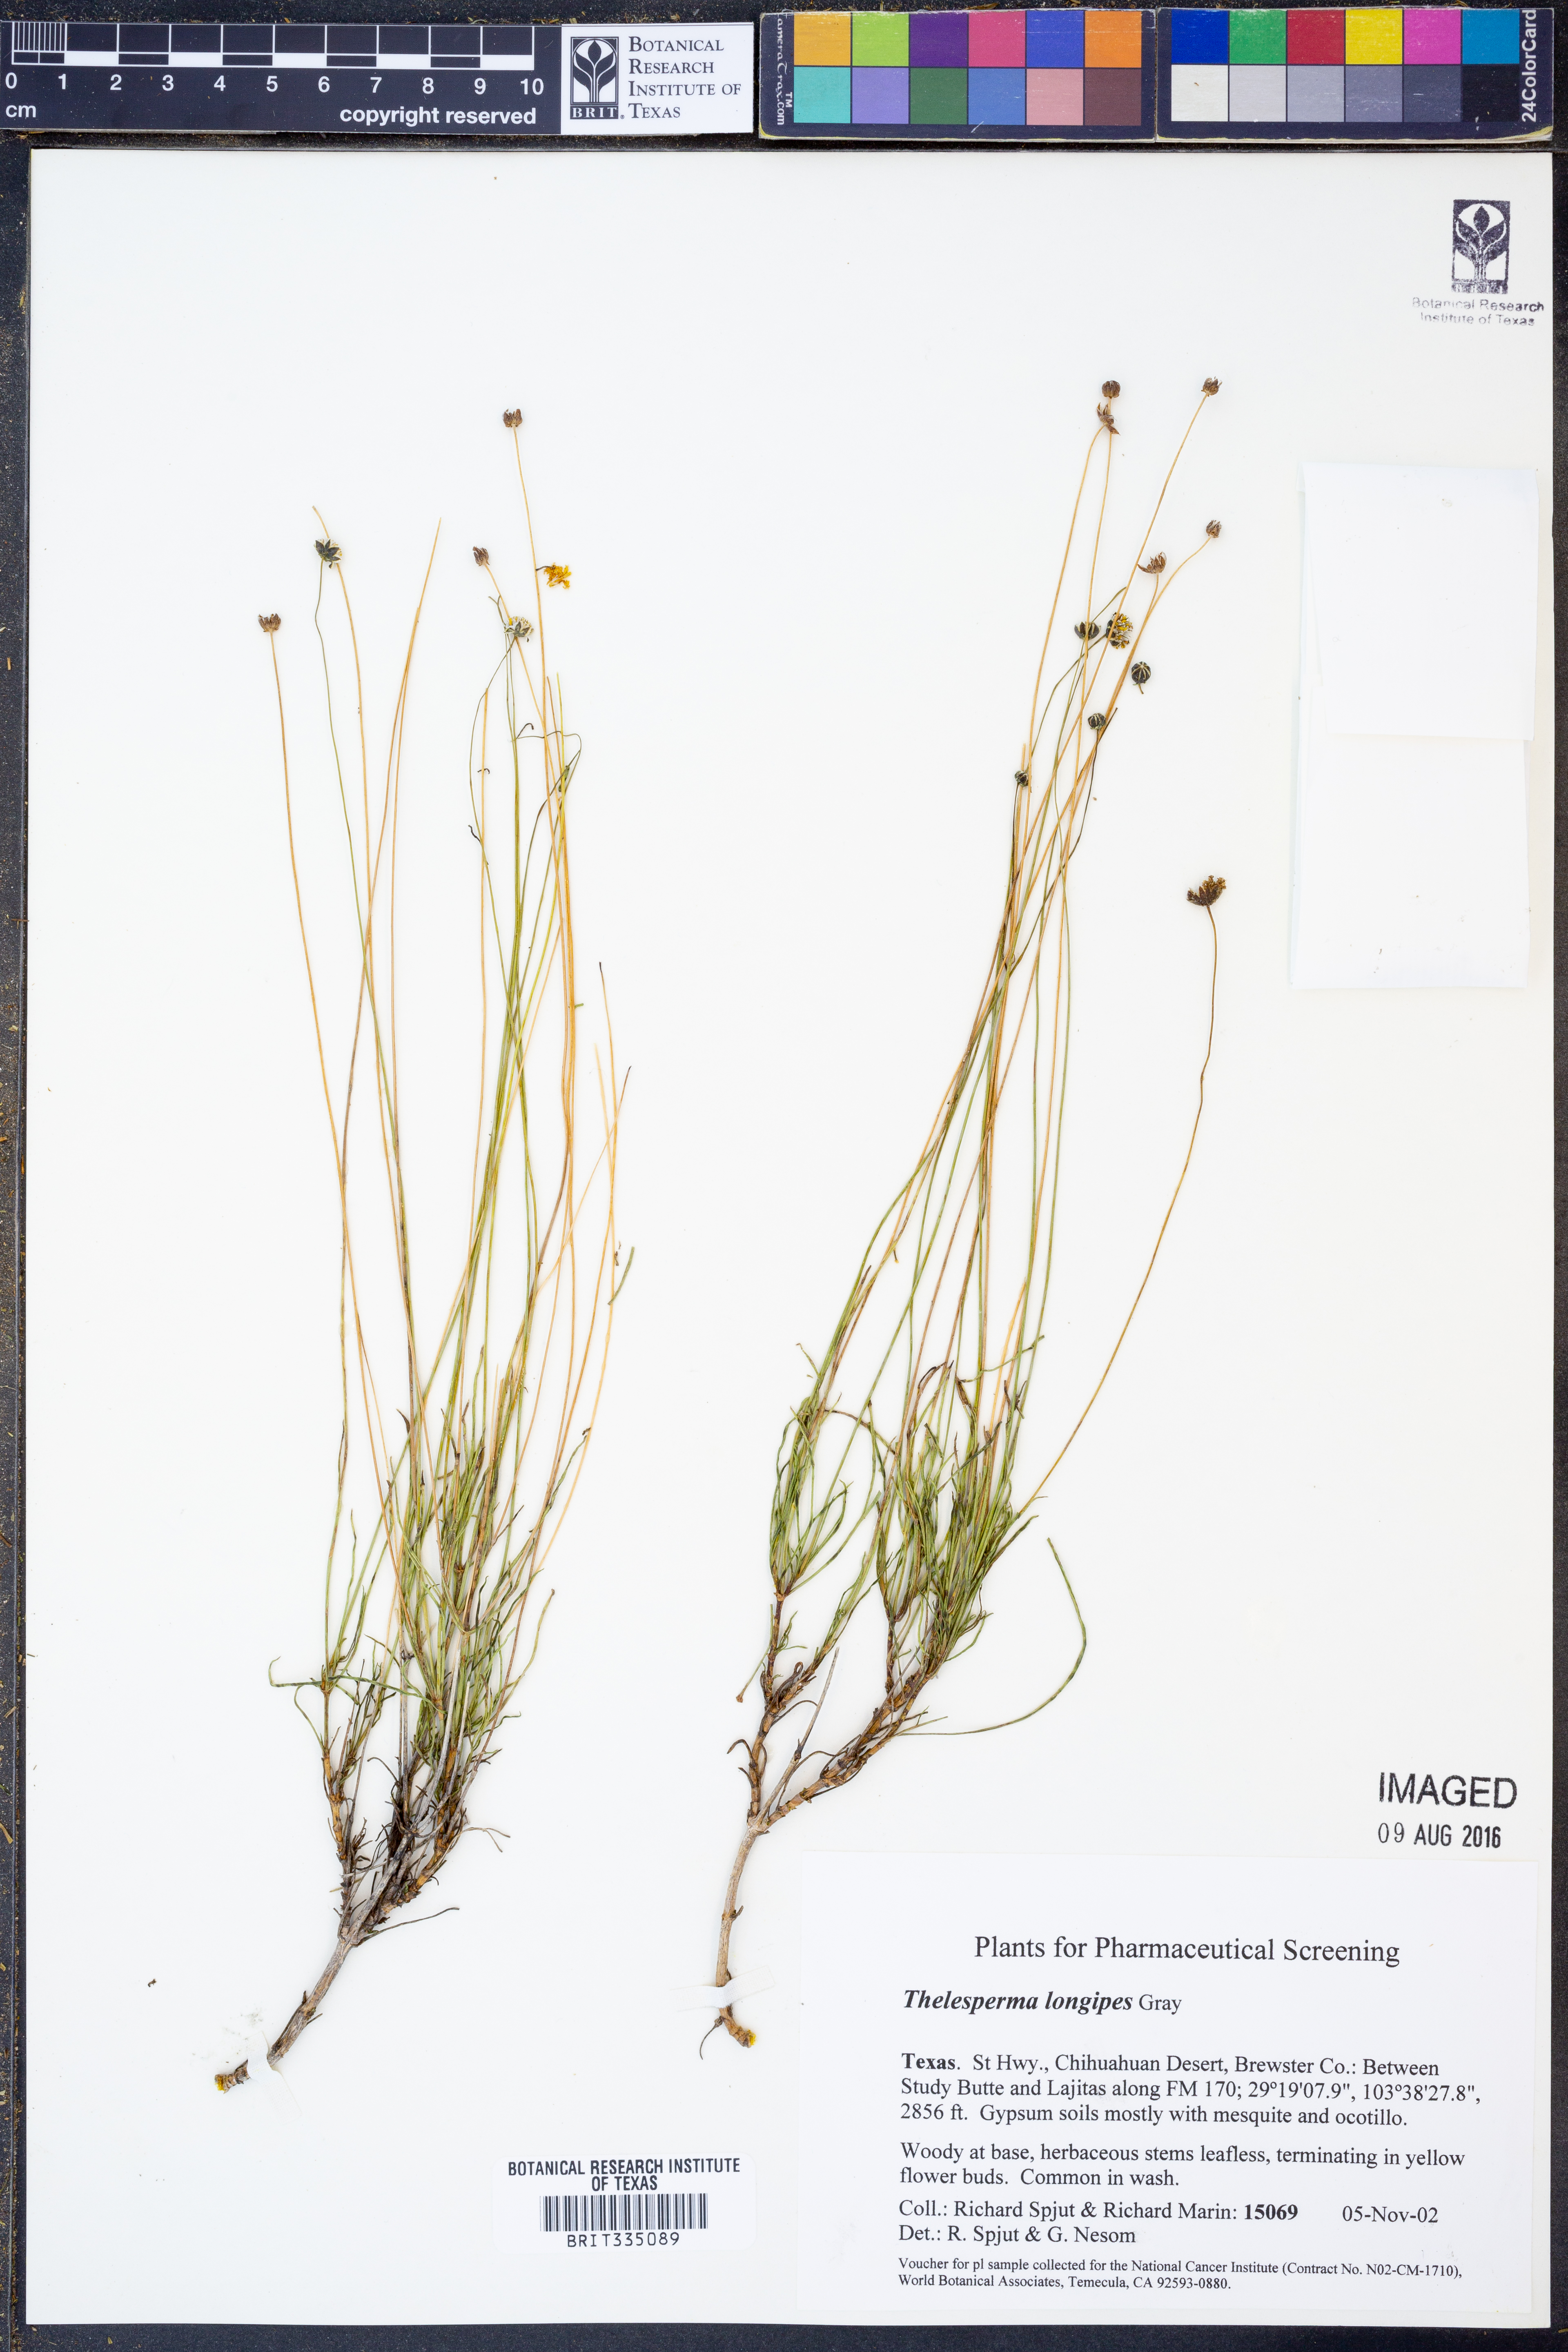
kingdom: Plantae
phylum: Tracheophyta
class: Magnoliopsida
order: Asterales
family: Asteraceae
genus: Thelesperma
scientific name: Thelesperma longipes
